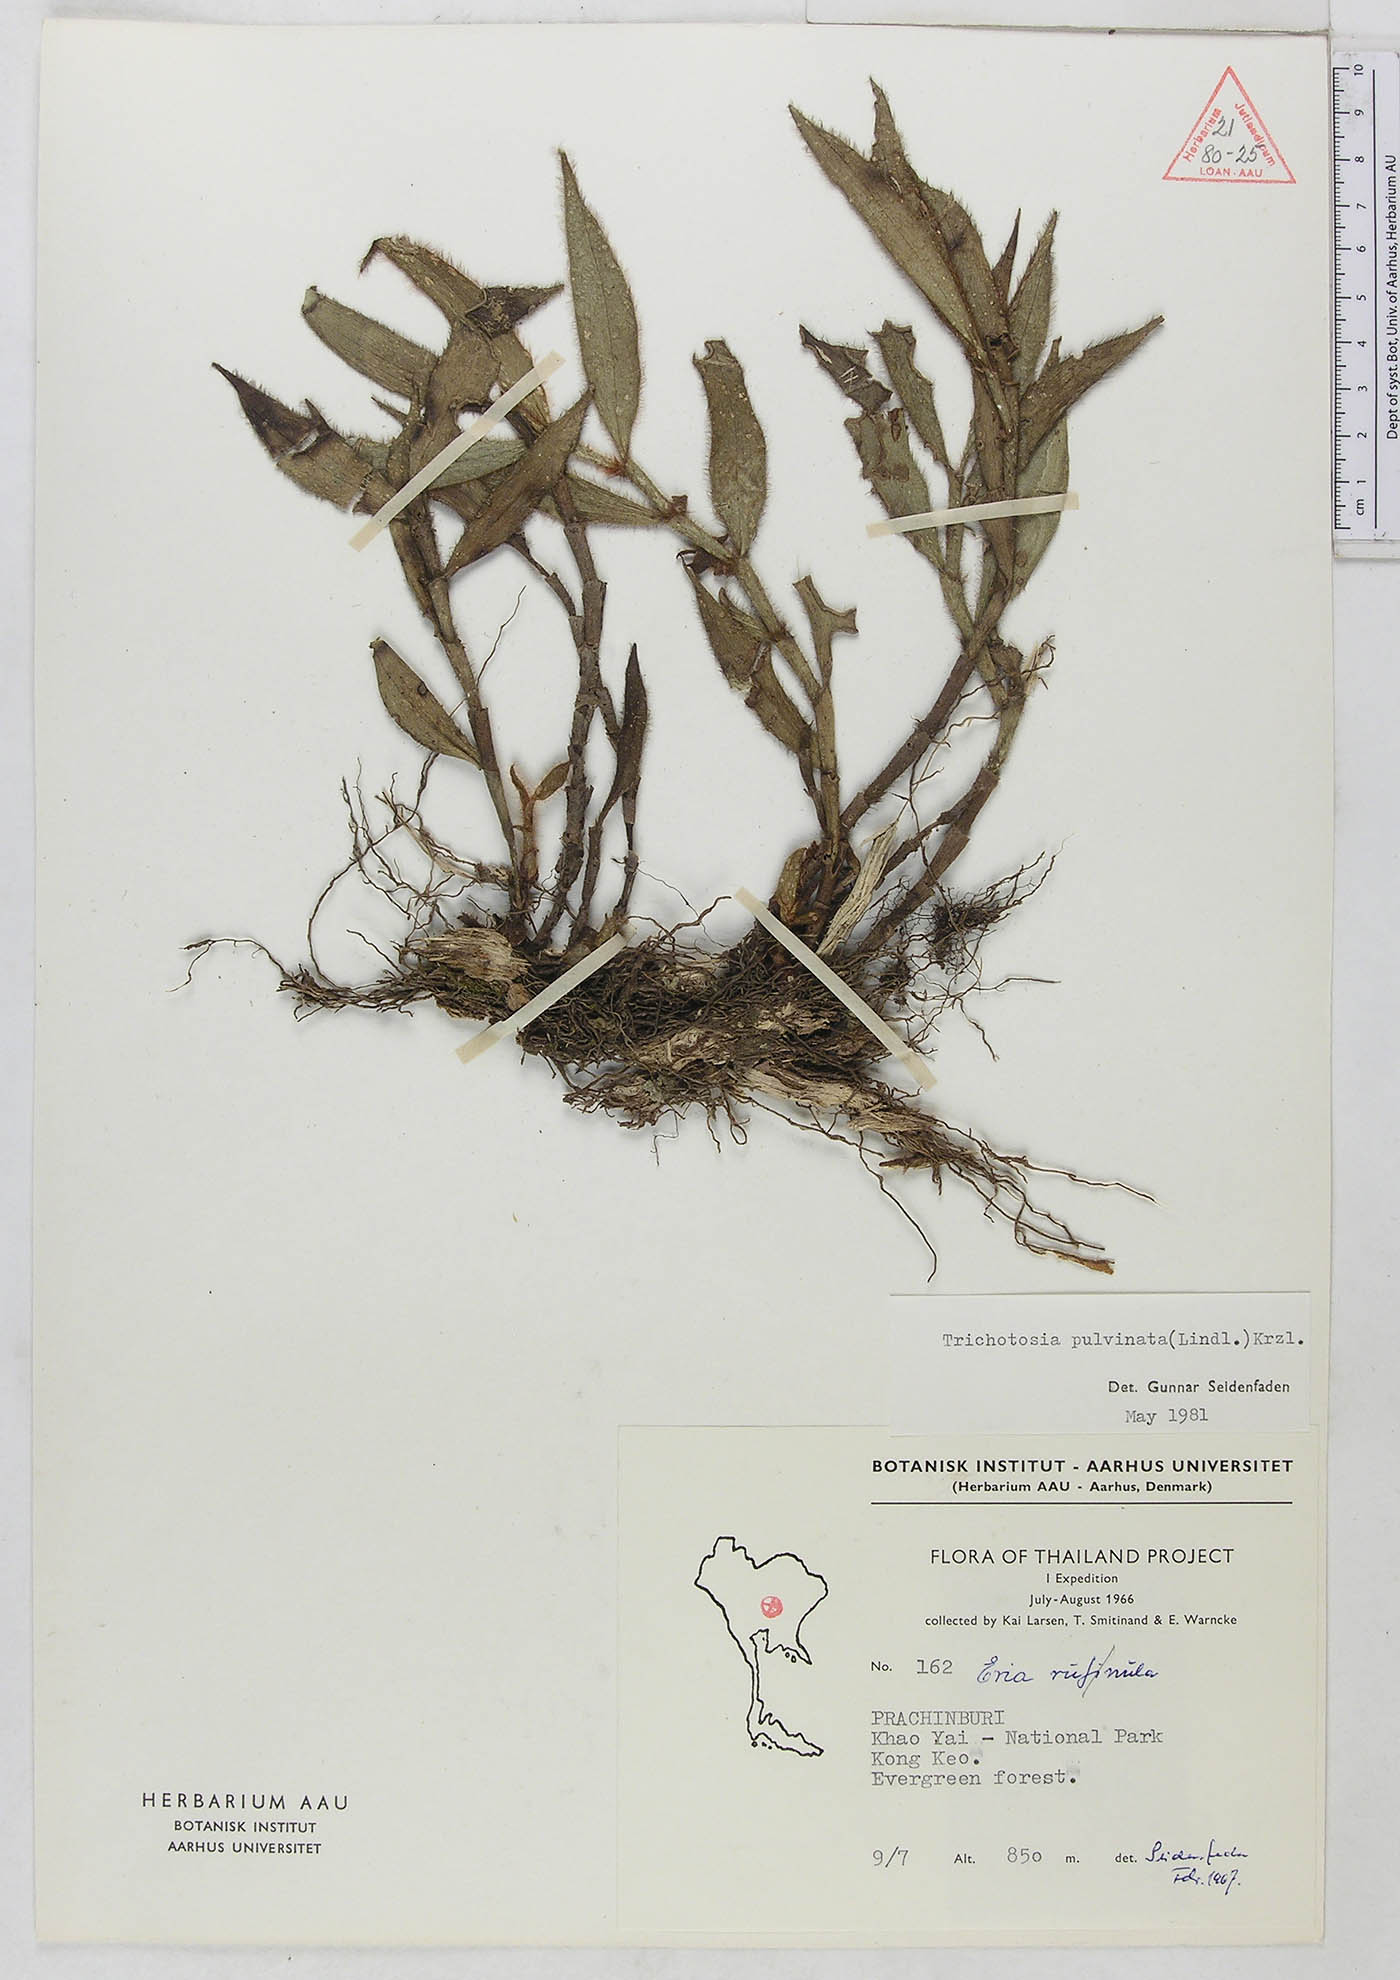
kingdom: Plantae
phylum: Tracheophyta
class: Liliopsida
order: Asparagales
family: Orchidaceae
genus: Trichotosia
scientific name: Trichotosia pulvinata
